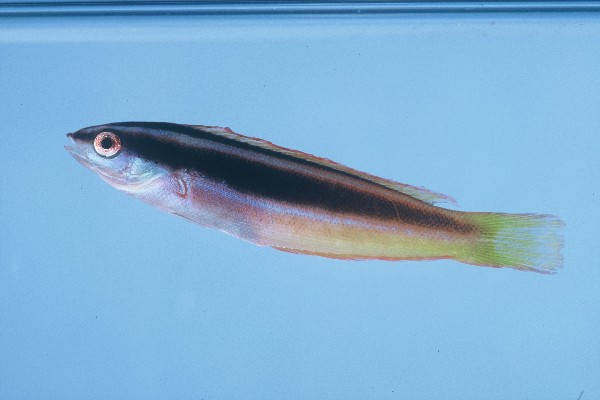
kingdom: Animalia
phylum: Chordata
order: Perciformes
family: Labridae
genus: Pseudocoris
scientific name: Pseudocoris occidentalis
